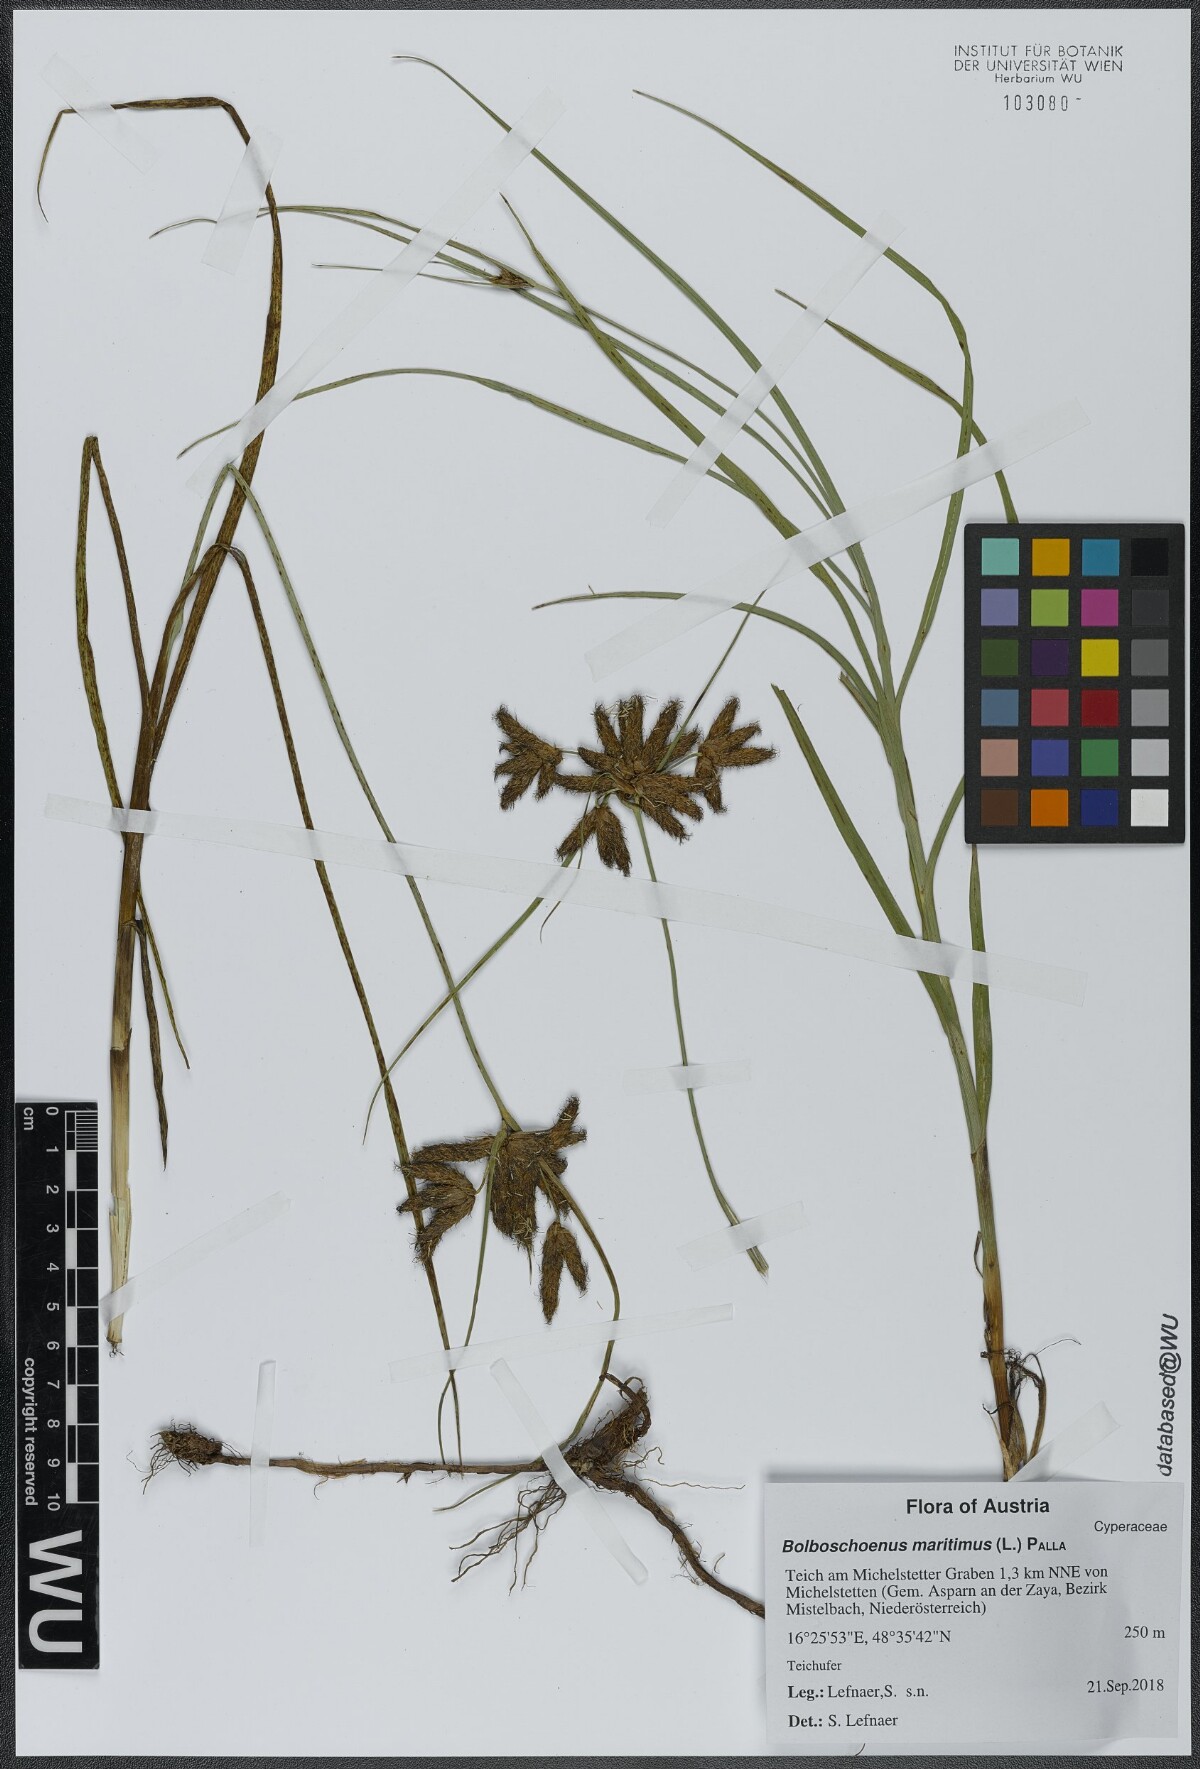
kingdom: Plantae
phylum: Tracheophyta
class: Liliopsida
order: Poales
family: Cyperaceae
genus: Bolboschoenus
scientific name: Bolboschoenus maritimus
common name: Sea club-rush
